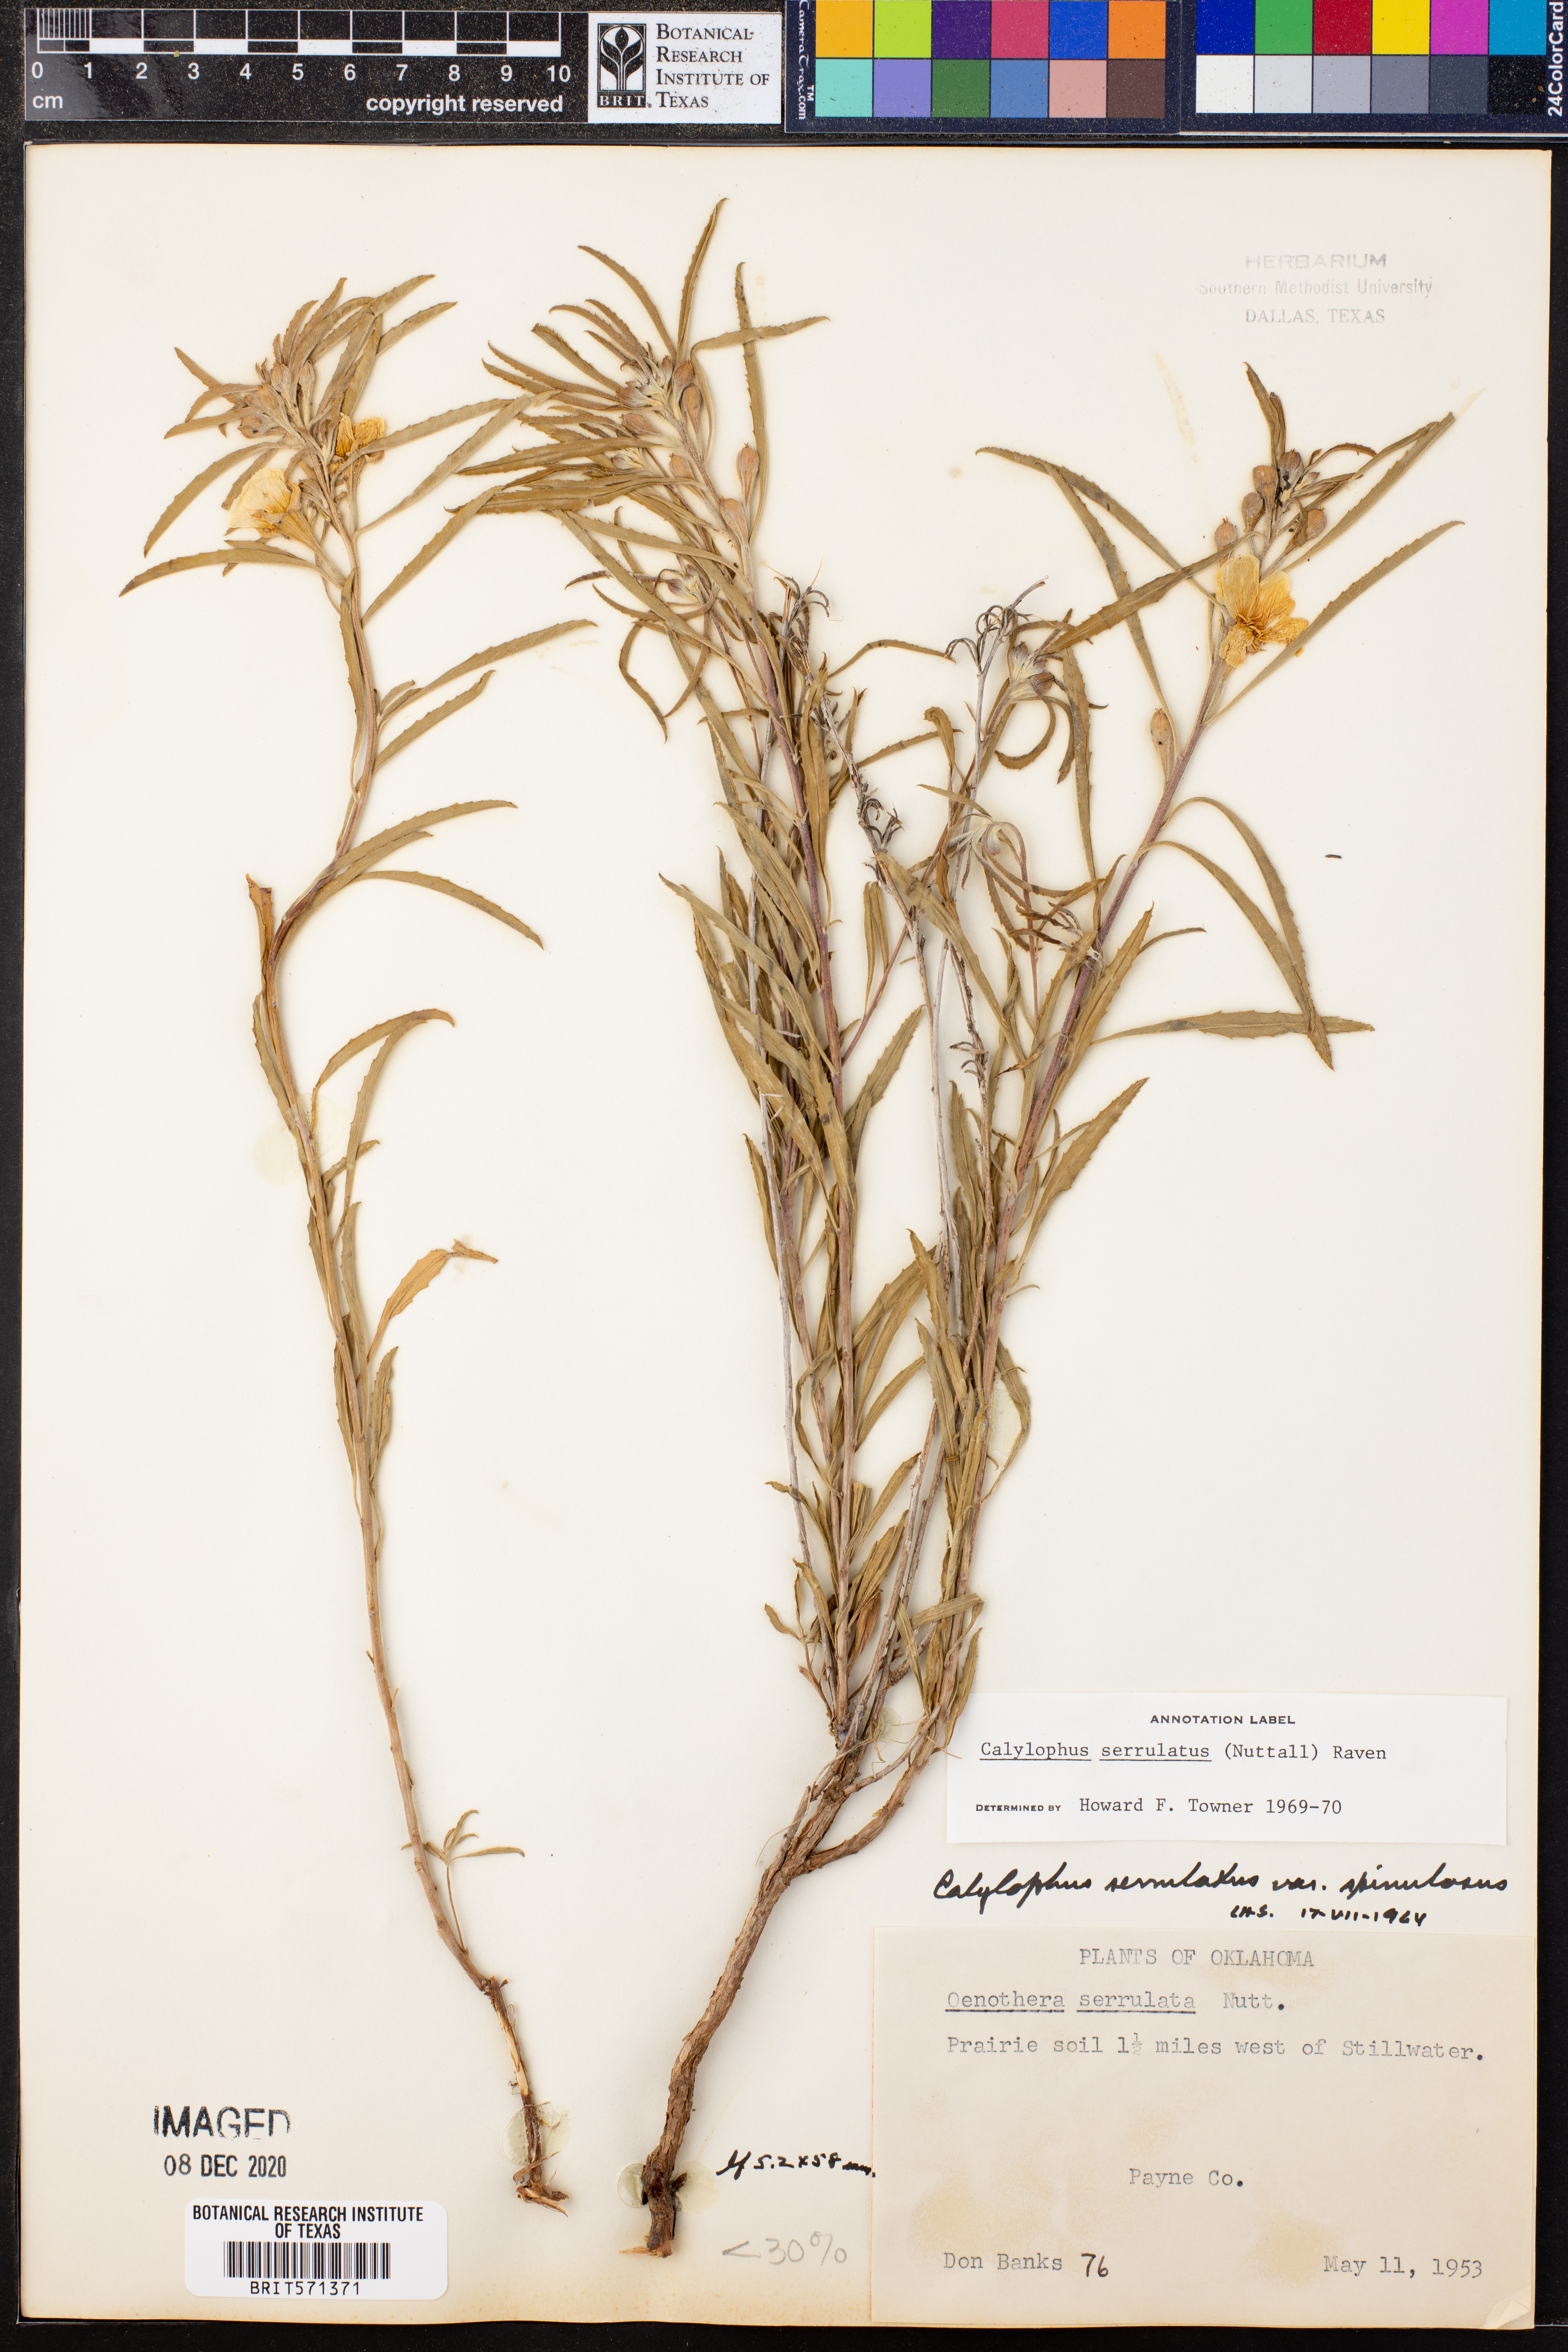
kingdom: Plantae
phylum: Tracheophyta
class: Magnoliopsida
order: Myrtales
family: Onagraceae
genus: Oenothera
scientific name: Oenothera serrulata
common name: Half-shrub calylophus
